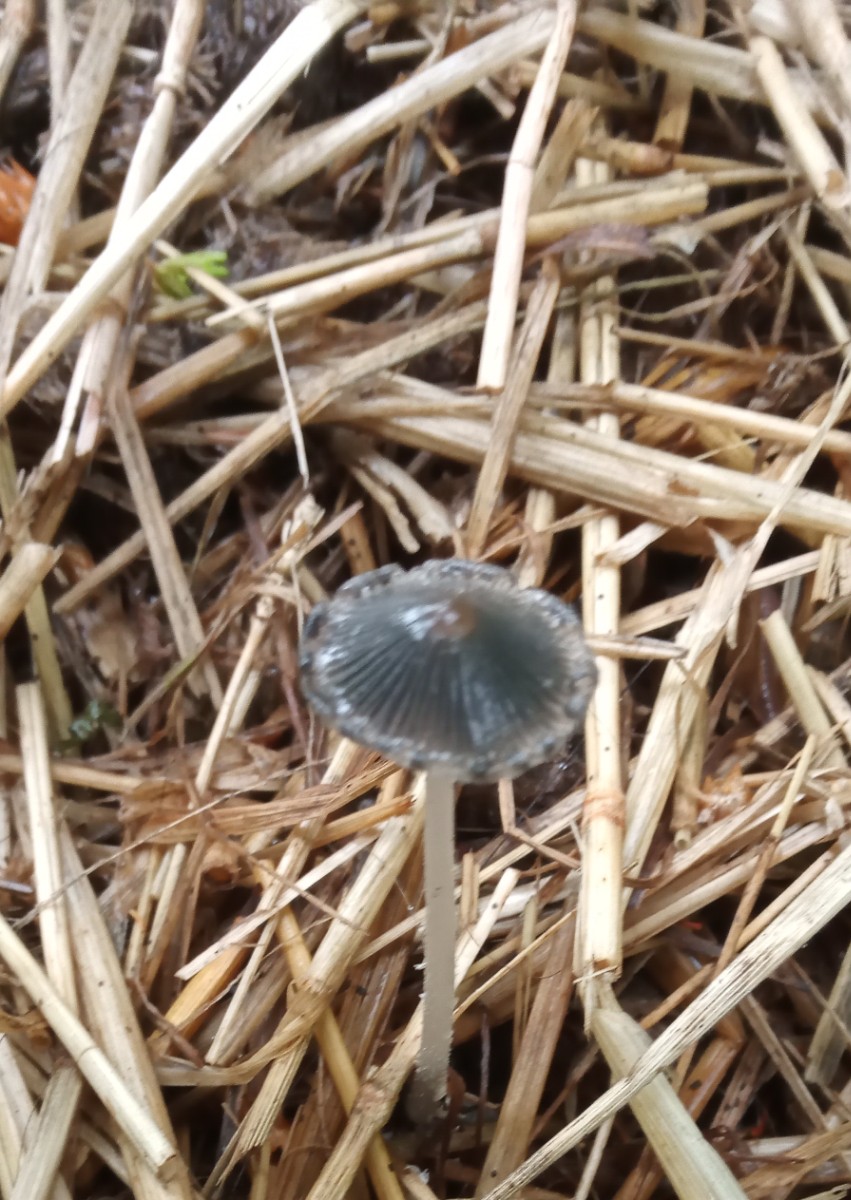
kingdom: Fungi
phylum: Basidiomycota
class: Agaricomycetes
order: Agaricales
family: Psathyrellaceae
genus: Coprinopsis
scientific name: Coprinopsis
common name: blækhat
